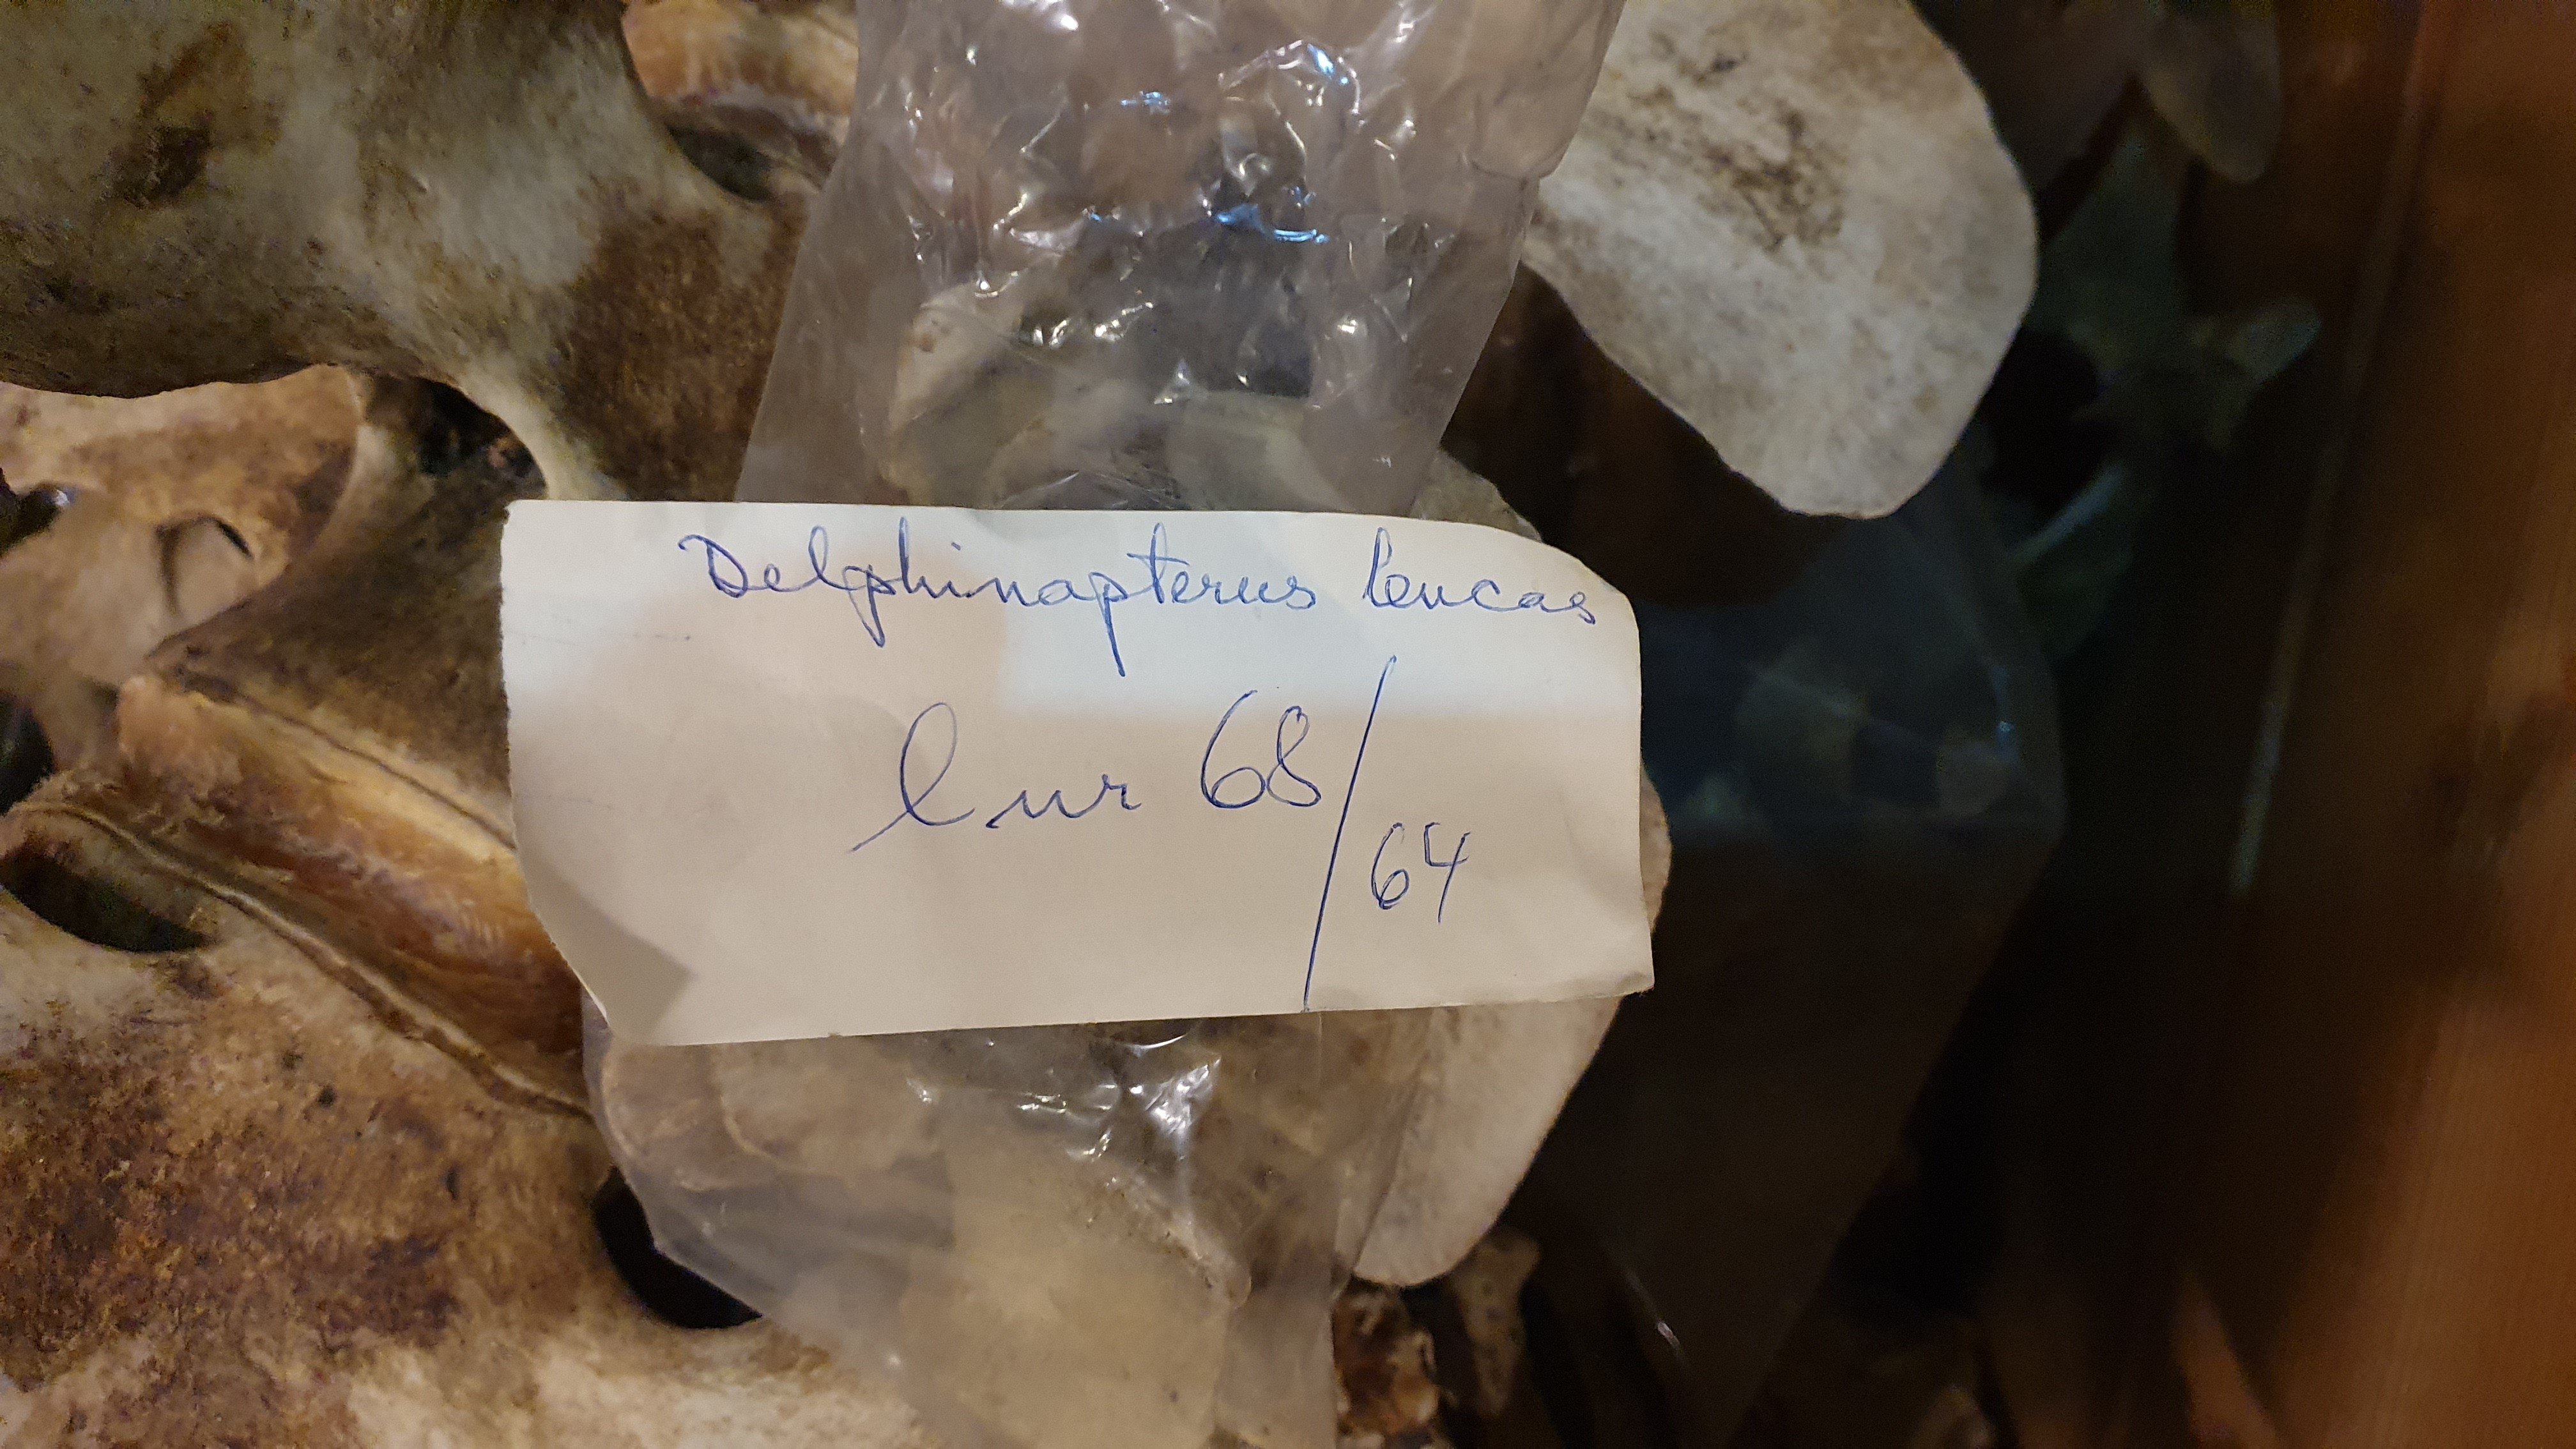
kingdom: Animalia
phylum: Chordata
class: Mammalia
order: Cetacea
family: Monodontidae
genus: Delphinapterus
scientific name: Delphinapterus leucas
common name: Beluga
